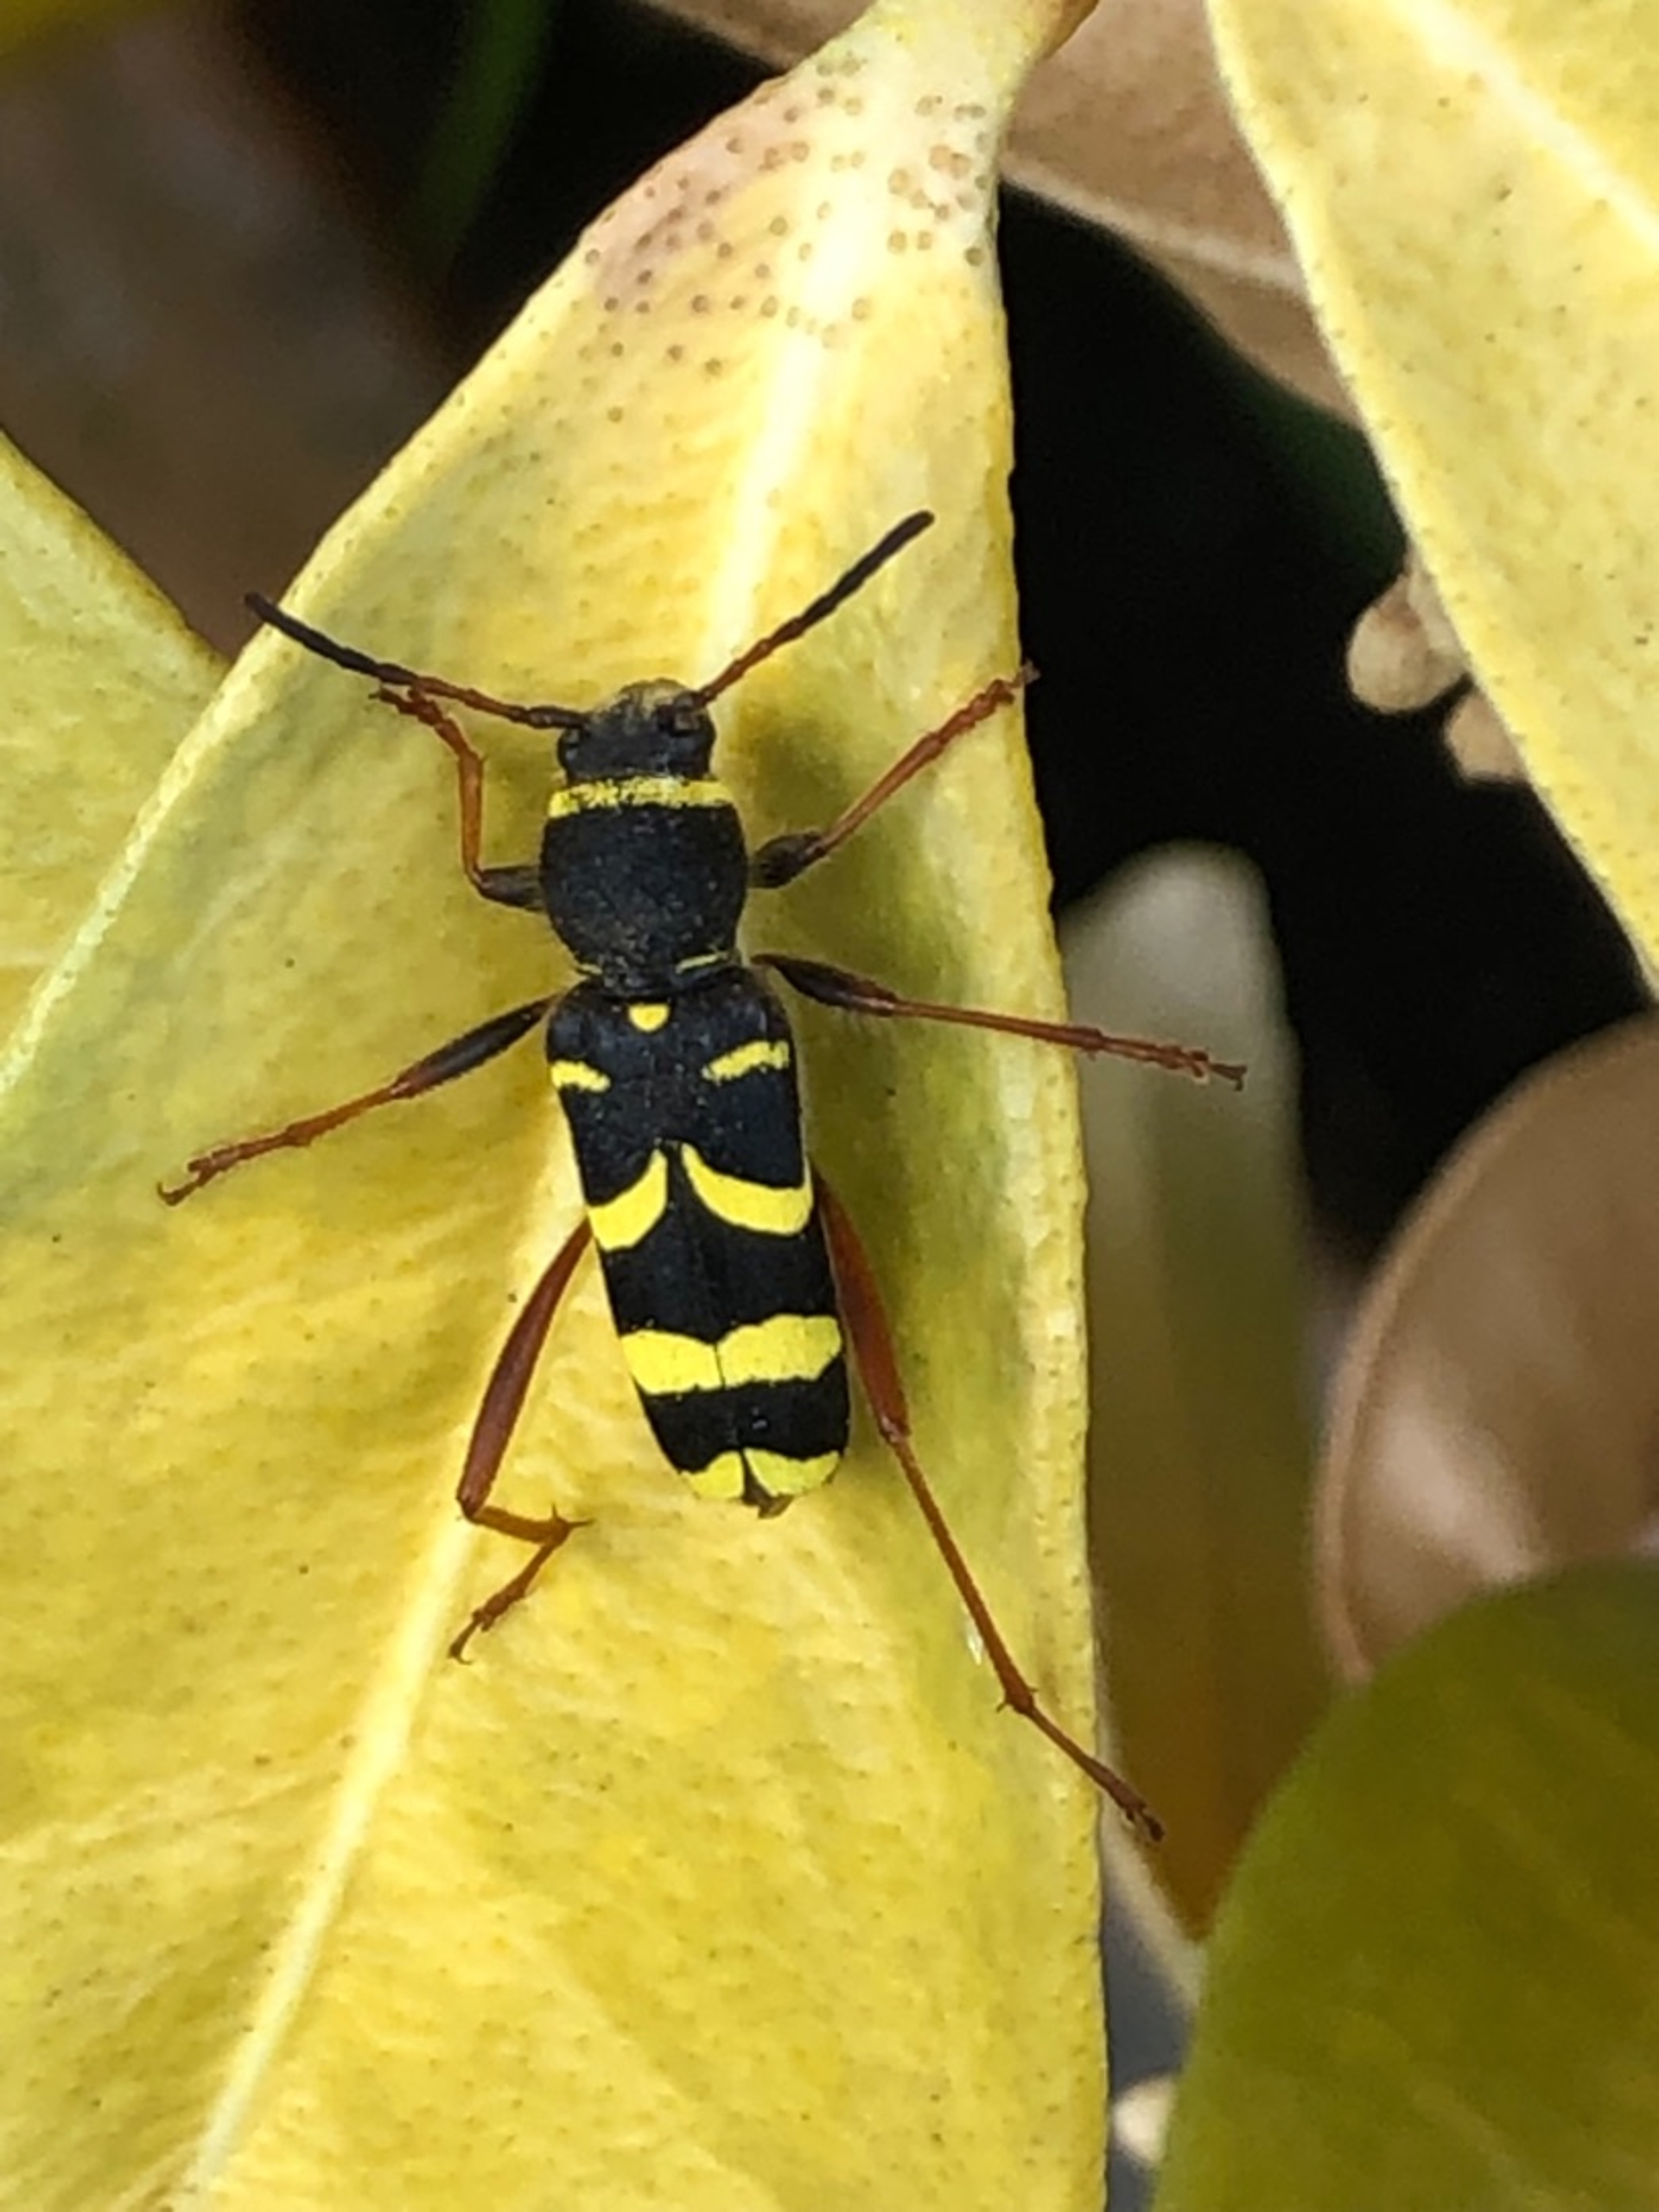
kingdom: Animalia
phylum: Arthropoda
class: Insecta
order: Coleoptera
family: Cerambycidae
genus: Clytus
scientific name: Clytus arietis
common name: Lille hvepsebuk
